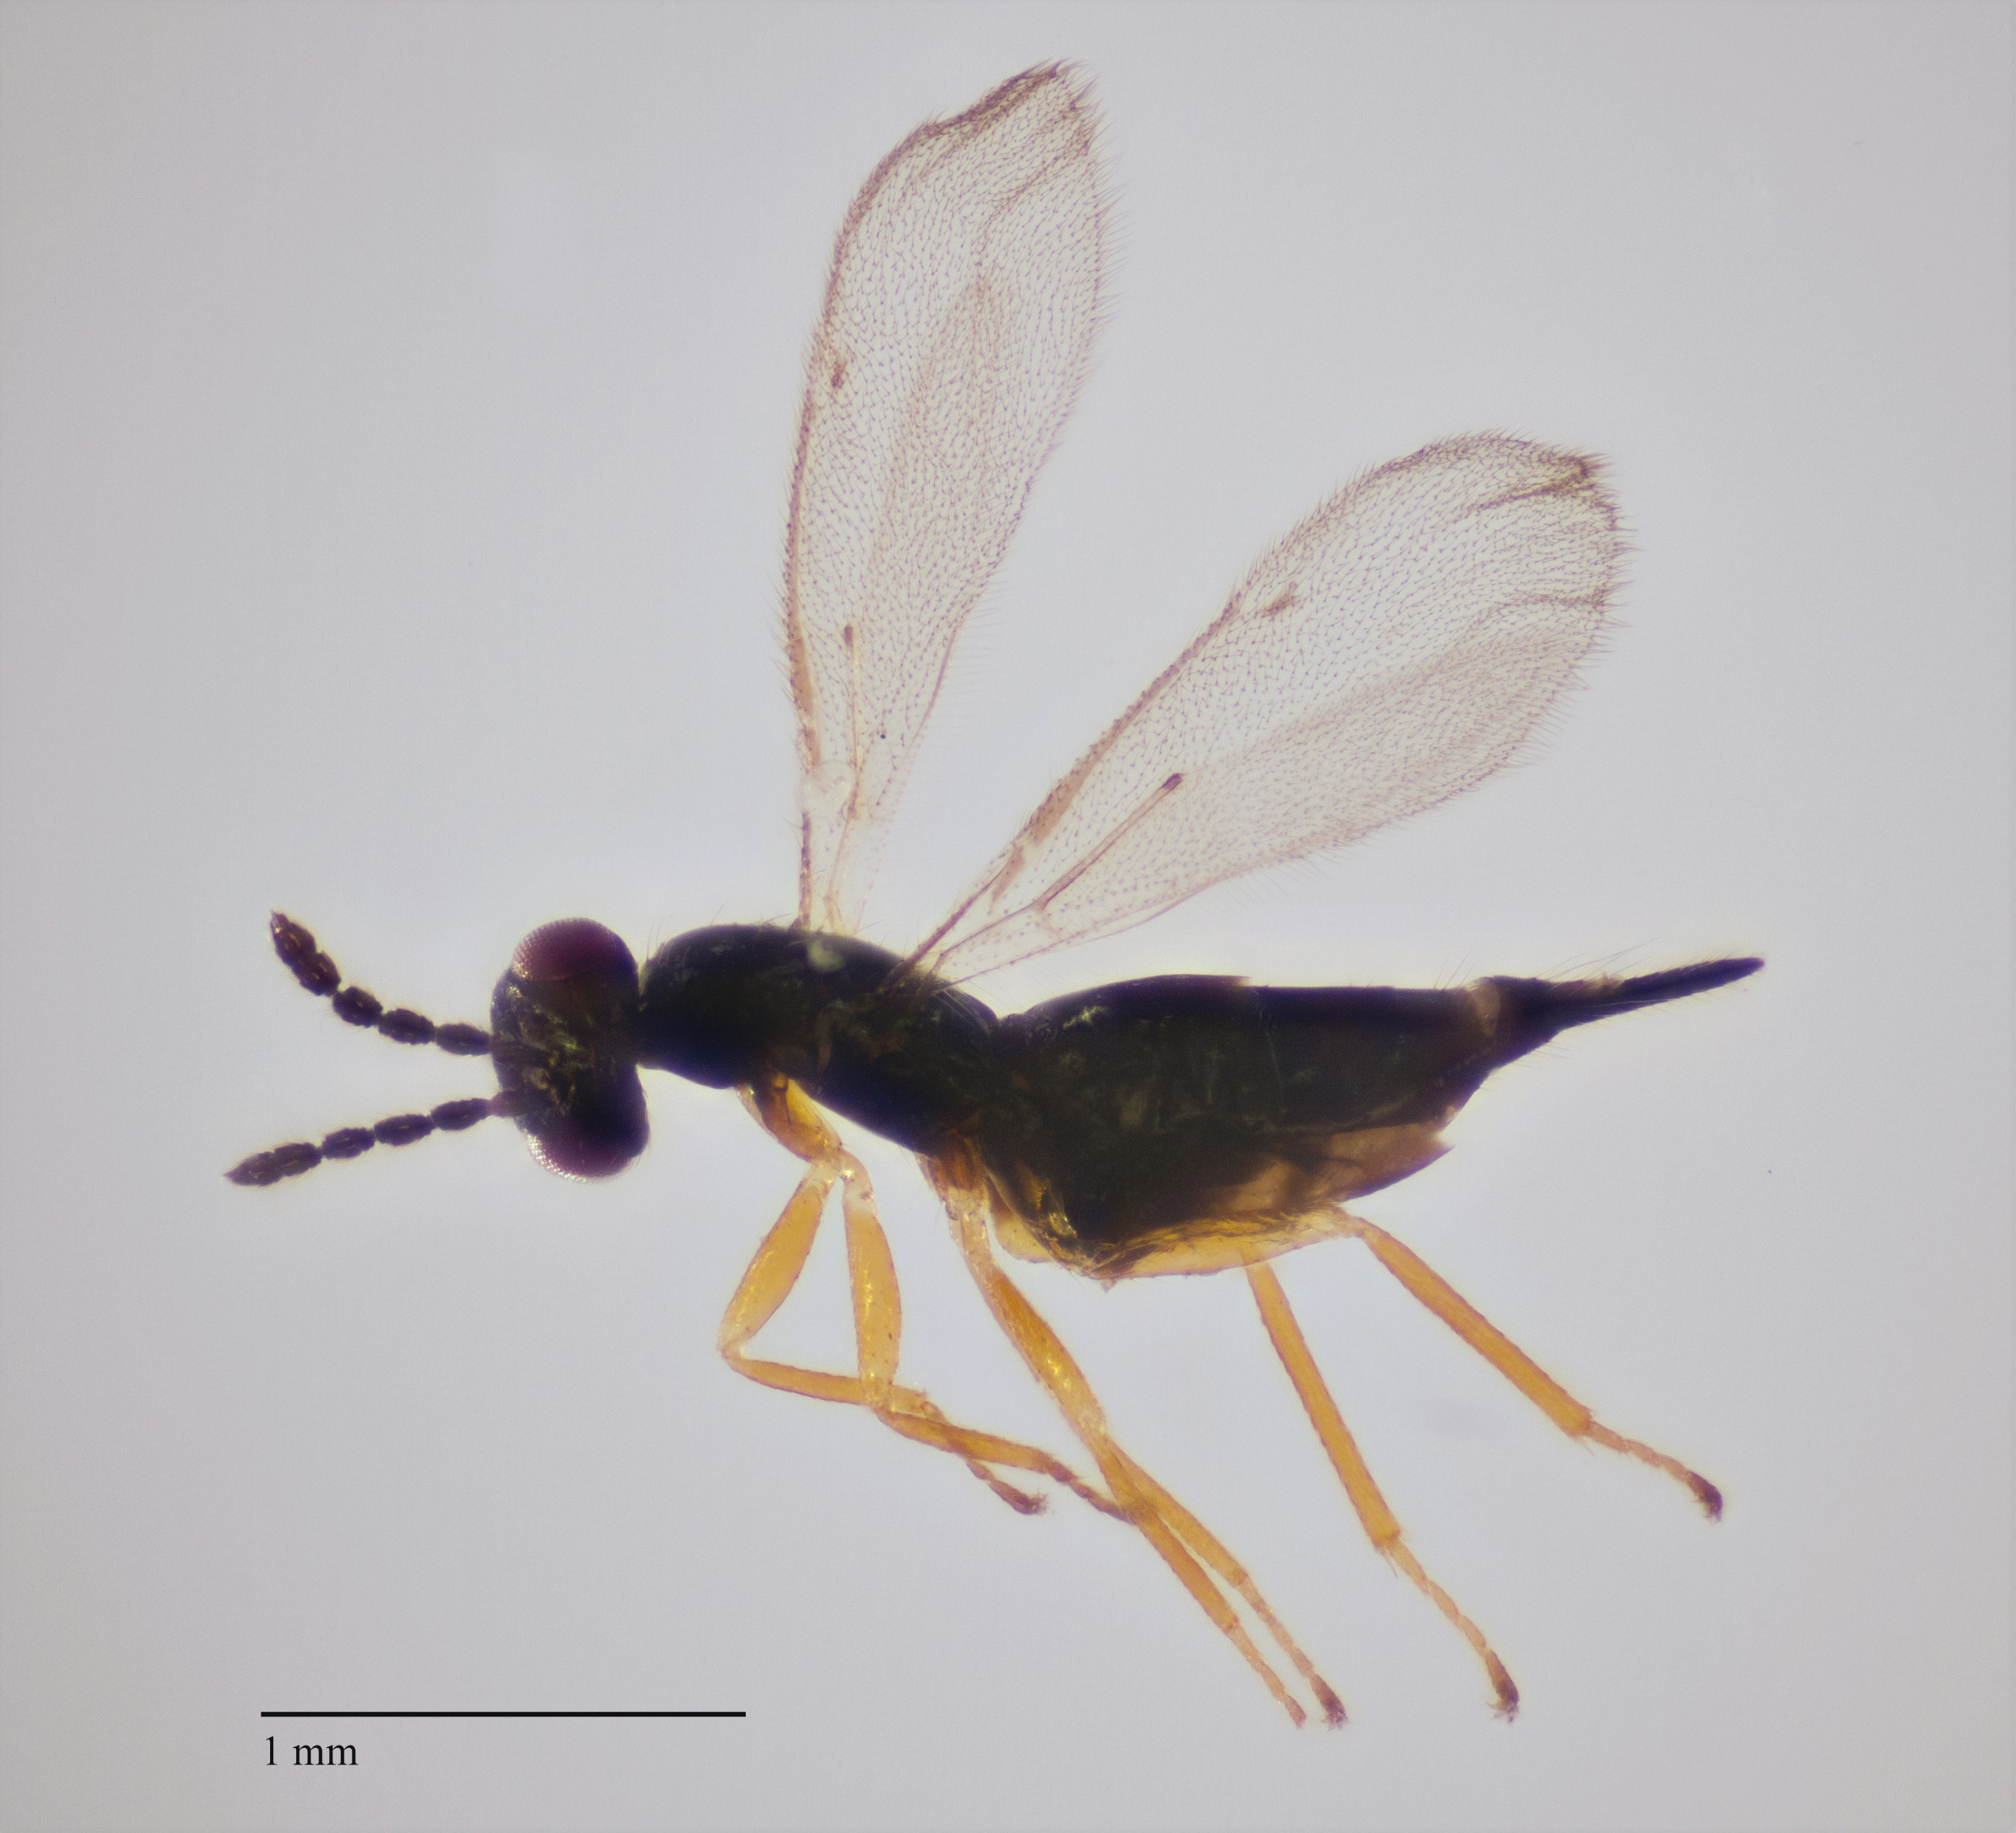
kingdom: Animalia
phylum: Arthropoda
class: Insecta
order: Hymenoptera
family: Eulophidae
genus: Aprostocetus
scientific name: Aprostocetus apama
